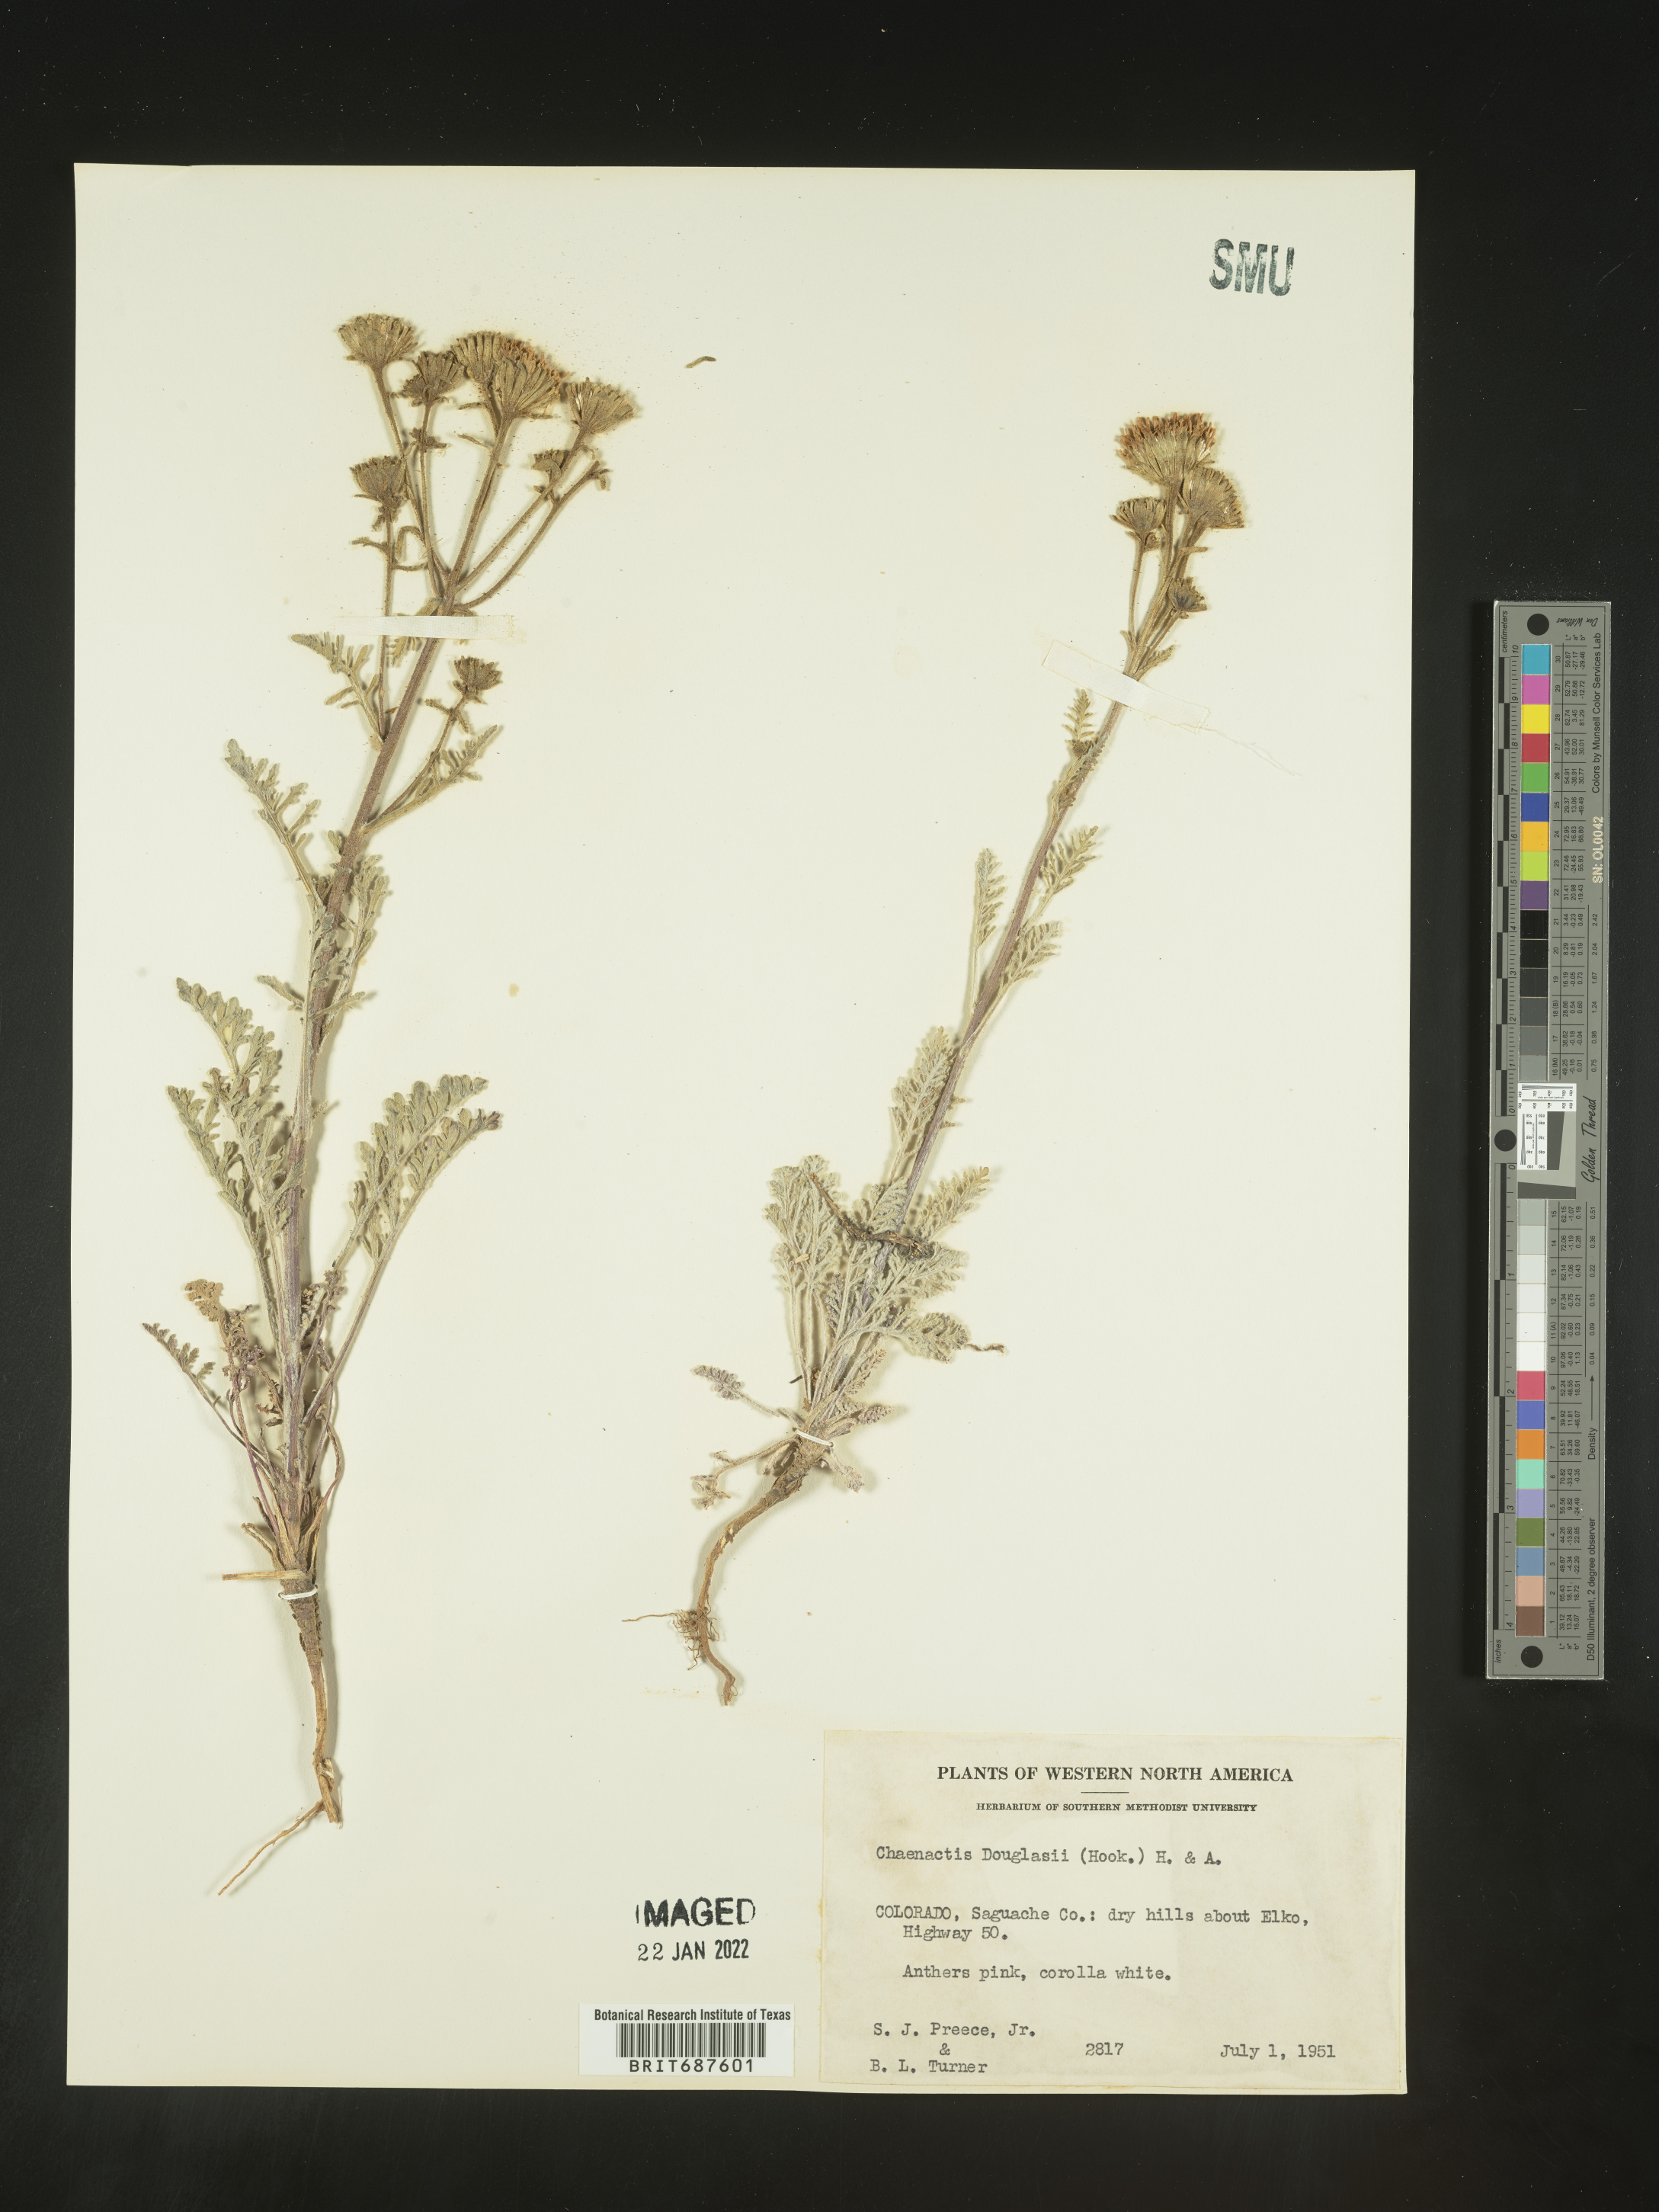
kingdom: Plantae
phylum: Tracheophyta
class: Magnoliopsida
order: Asterales
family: Asteraceae
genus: Chaenactis
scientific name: Chaenactis douglasii
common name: Hoary pincushion
